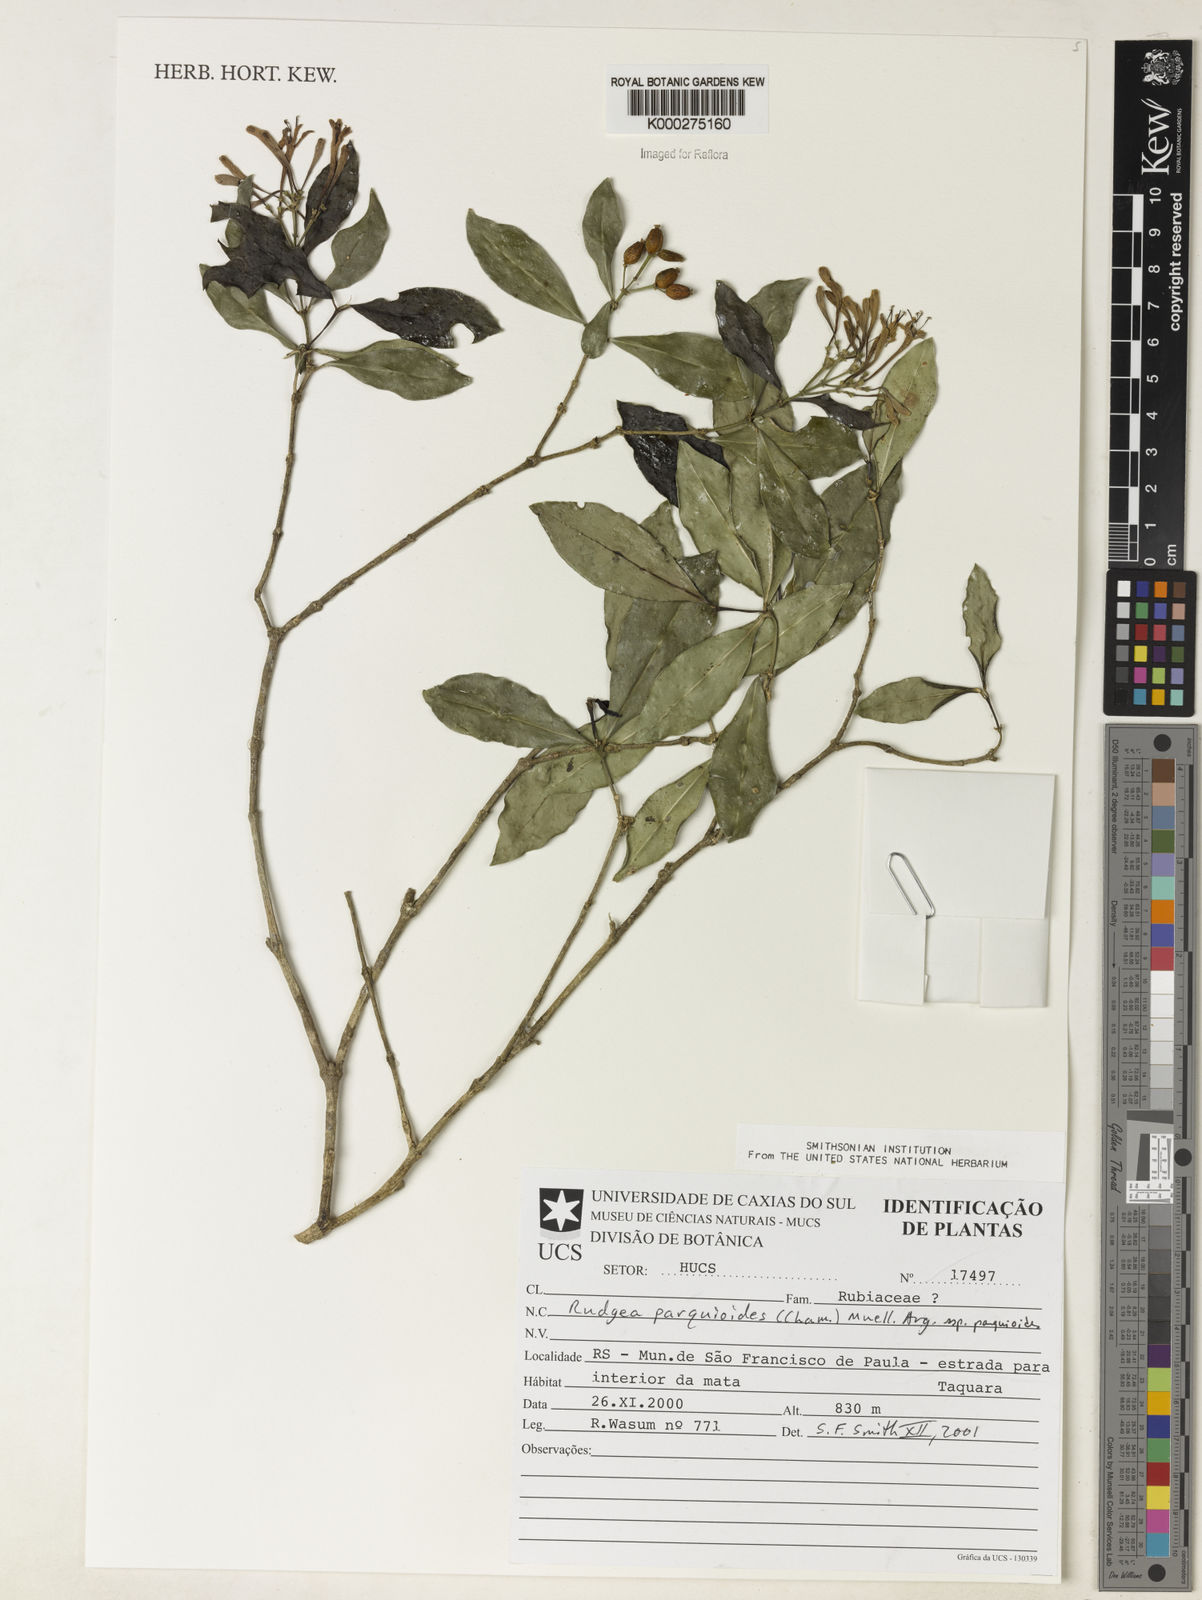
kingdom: Plantae
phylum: Tracheophyta
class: Magnoliopsida
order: Gentianales
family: Rubiaceae
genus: Rudgea
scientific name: Rudgea parquioides
